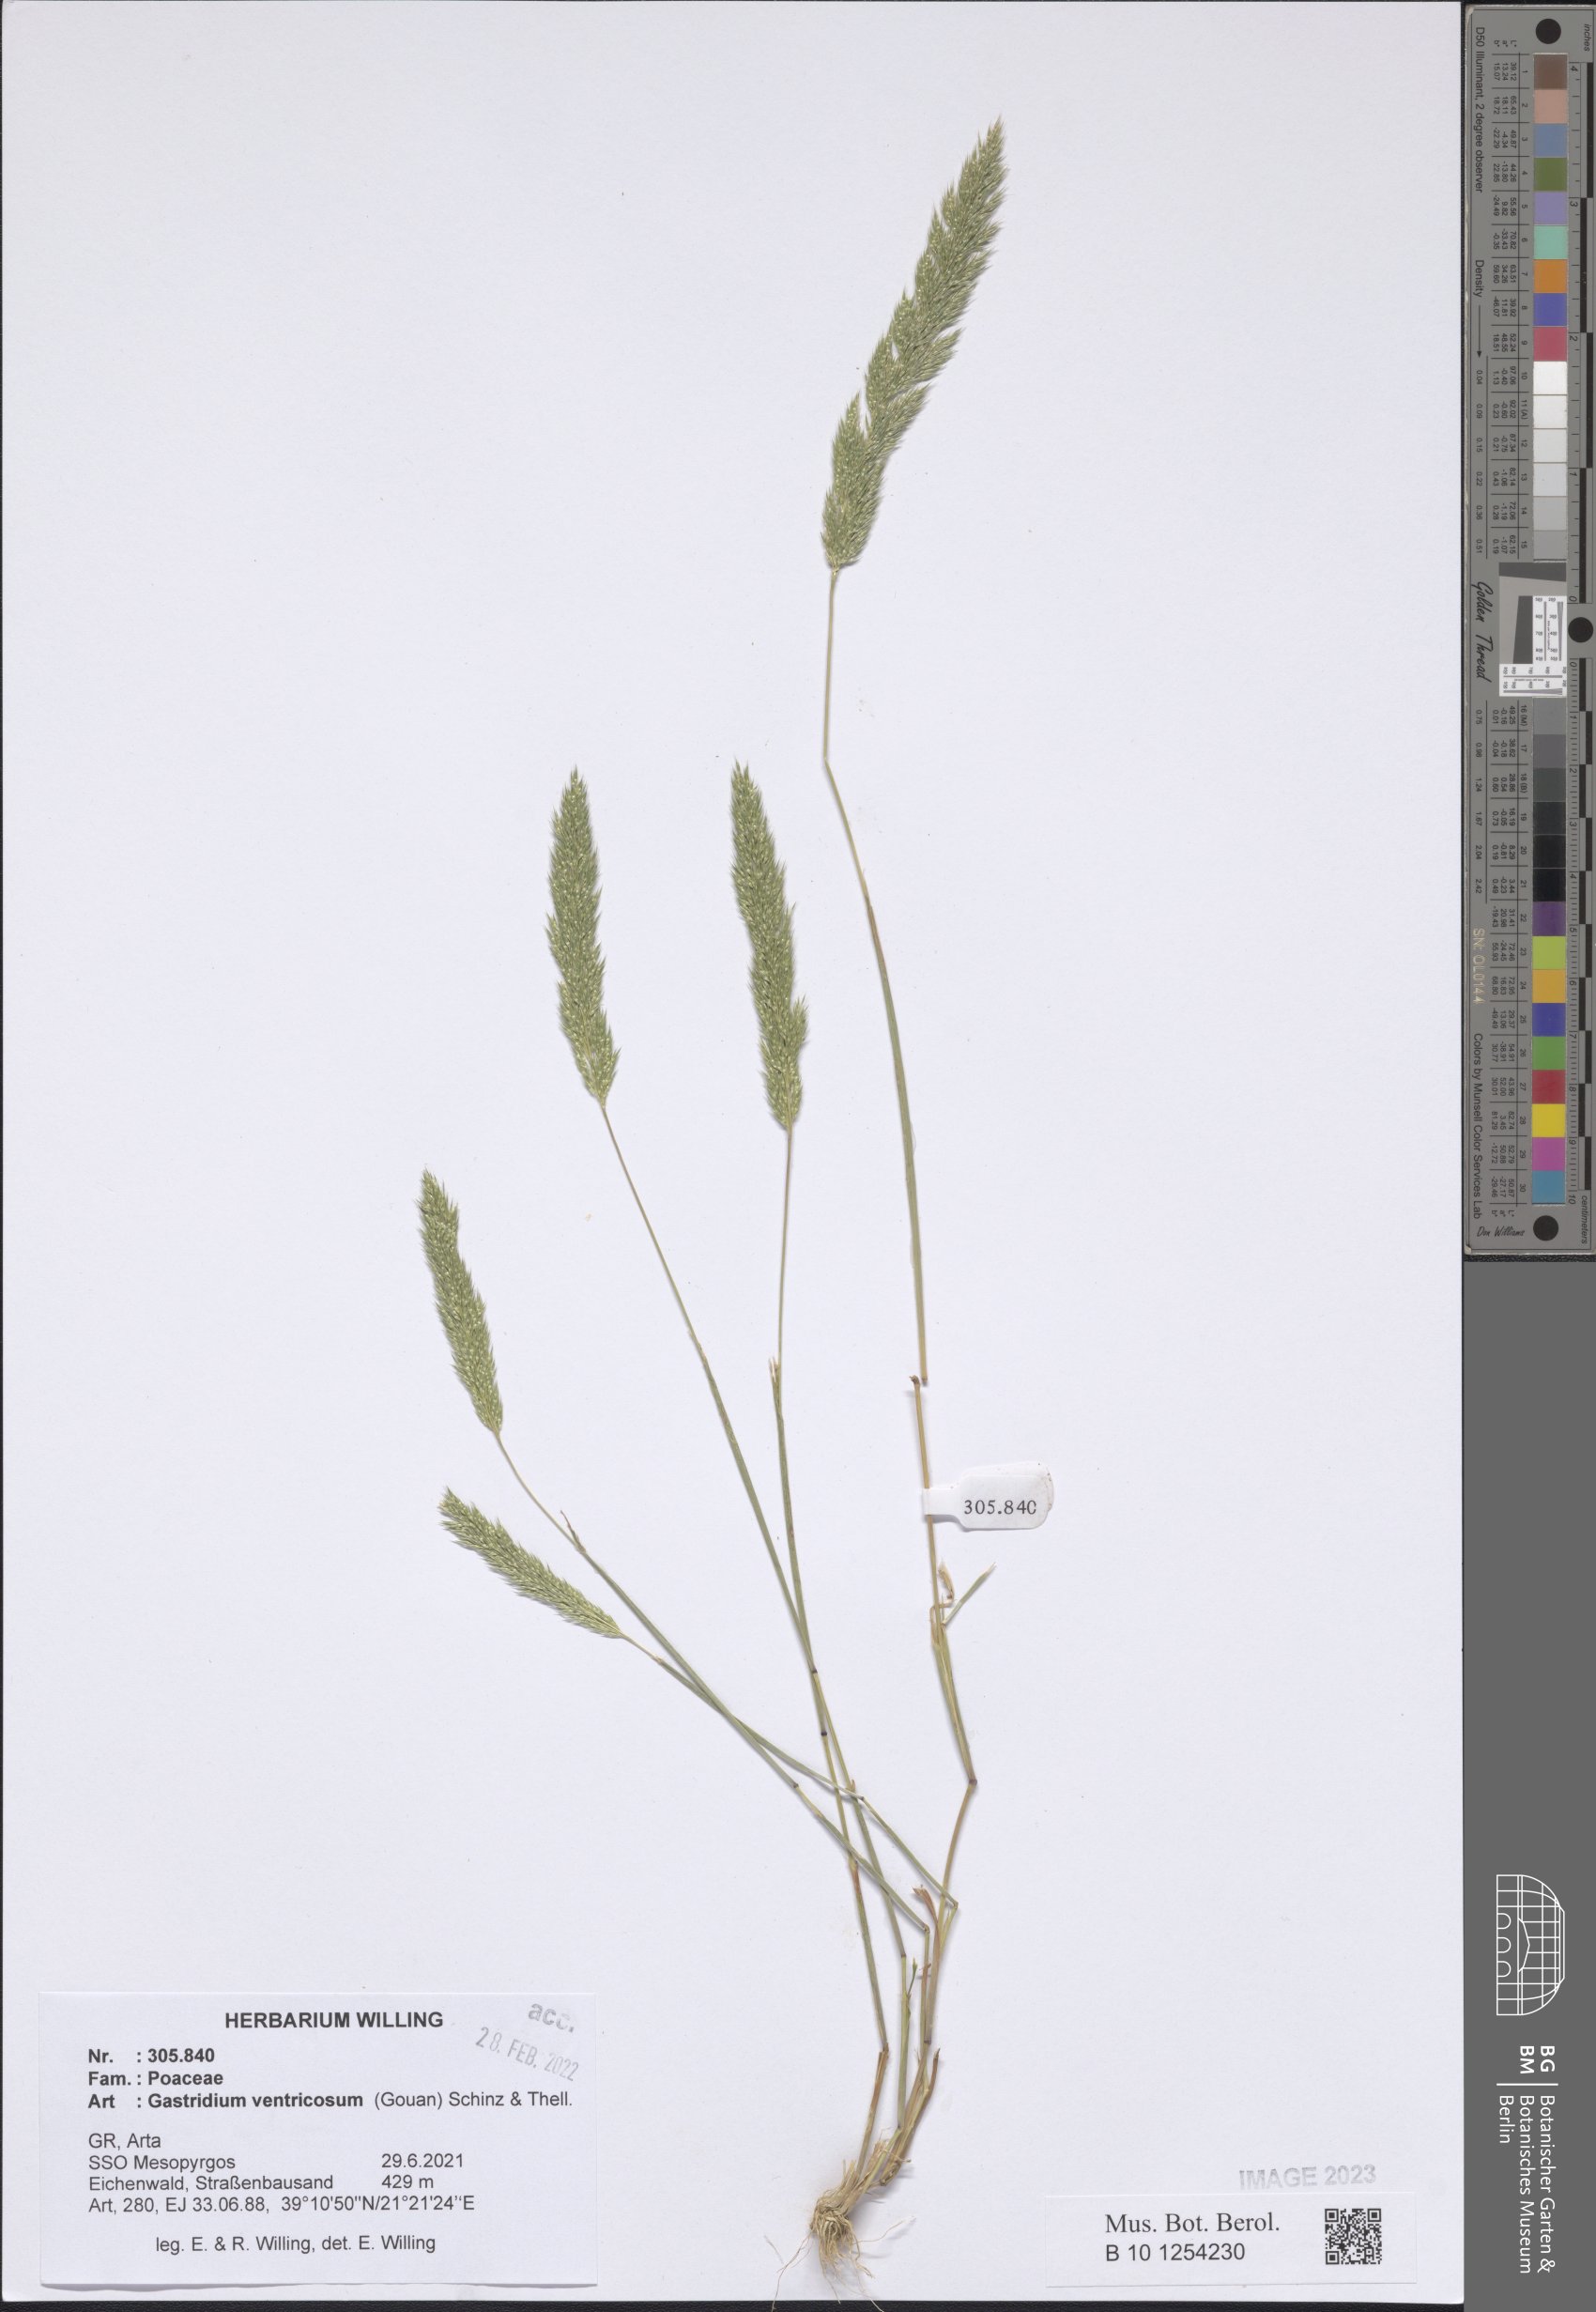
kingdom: Plantae
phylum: Tracheophyta
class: Liliopsida
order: Poales
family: Poaceae
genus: Gastridium
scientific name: Gastridium ventricosum
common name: Nit-grass
